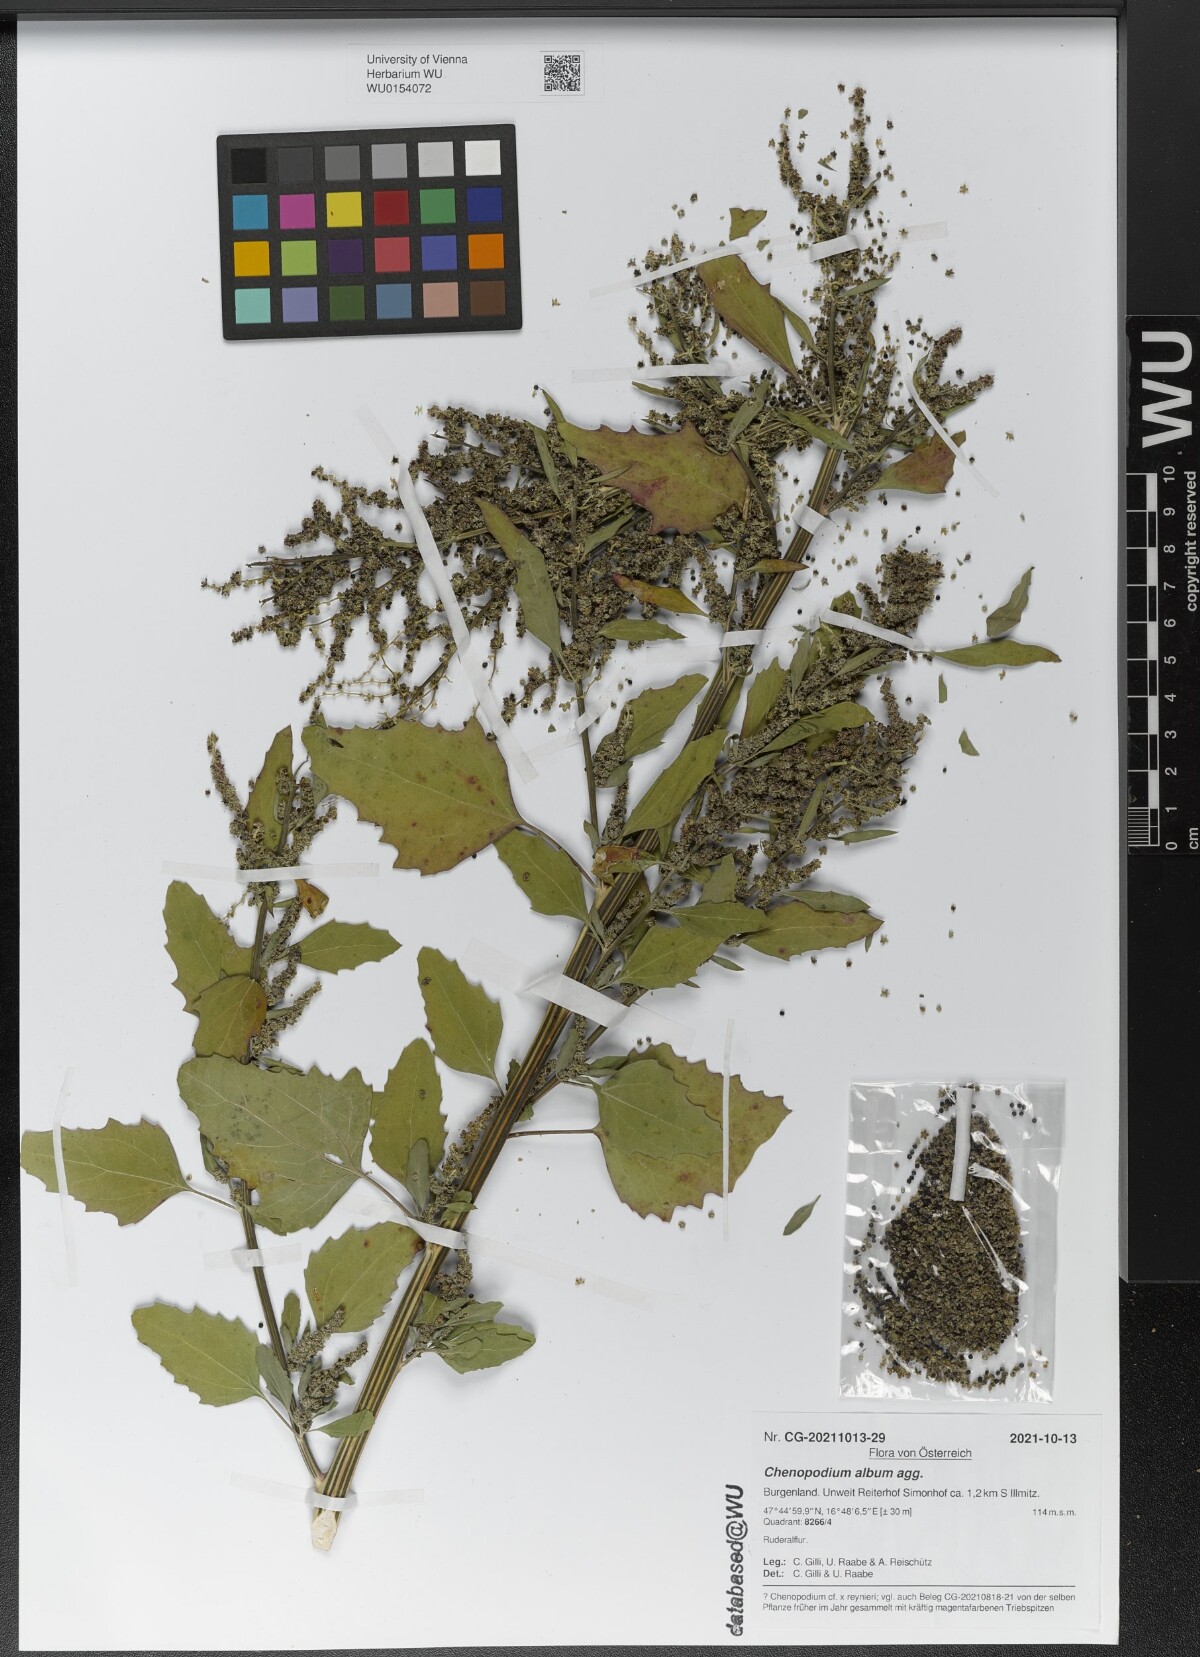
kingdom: Plantae
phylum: Tracheophyta
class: Magnoliopsida
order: Caryophyllales
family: Amaranthaceae
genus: Chenopodium
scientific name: Chenopodium album
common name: Fat-hen
